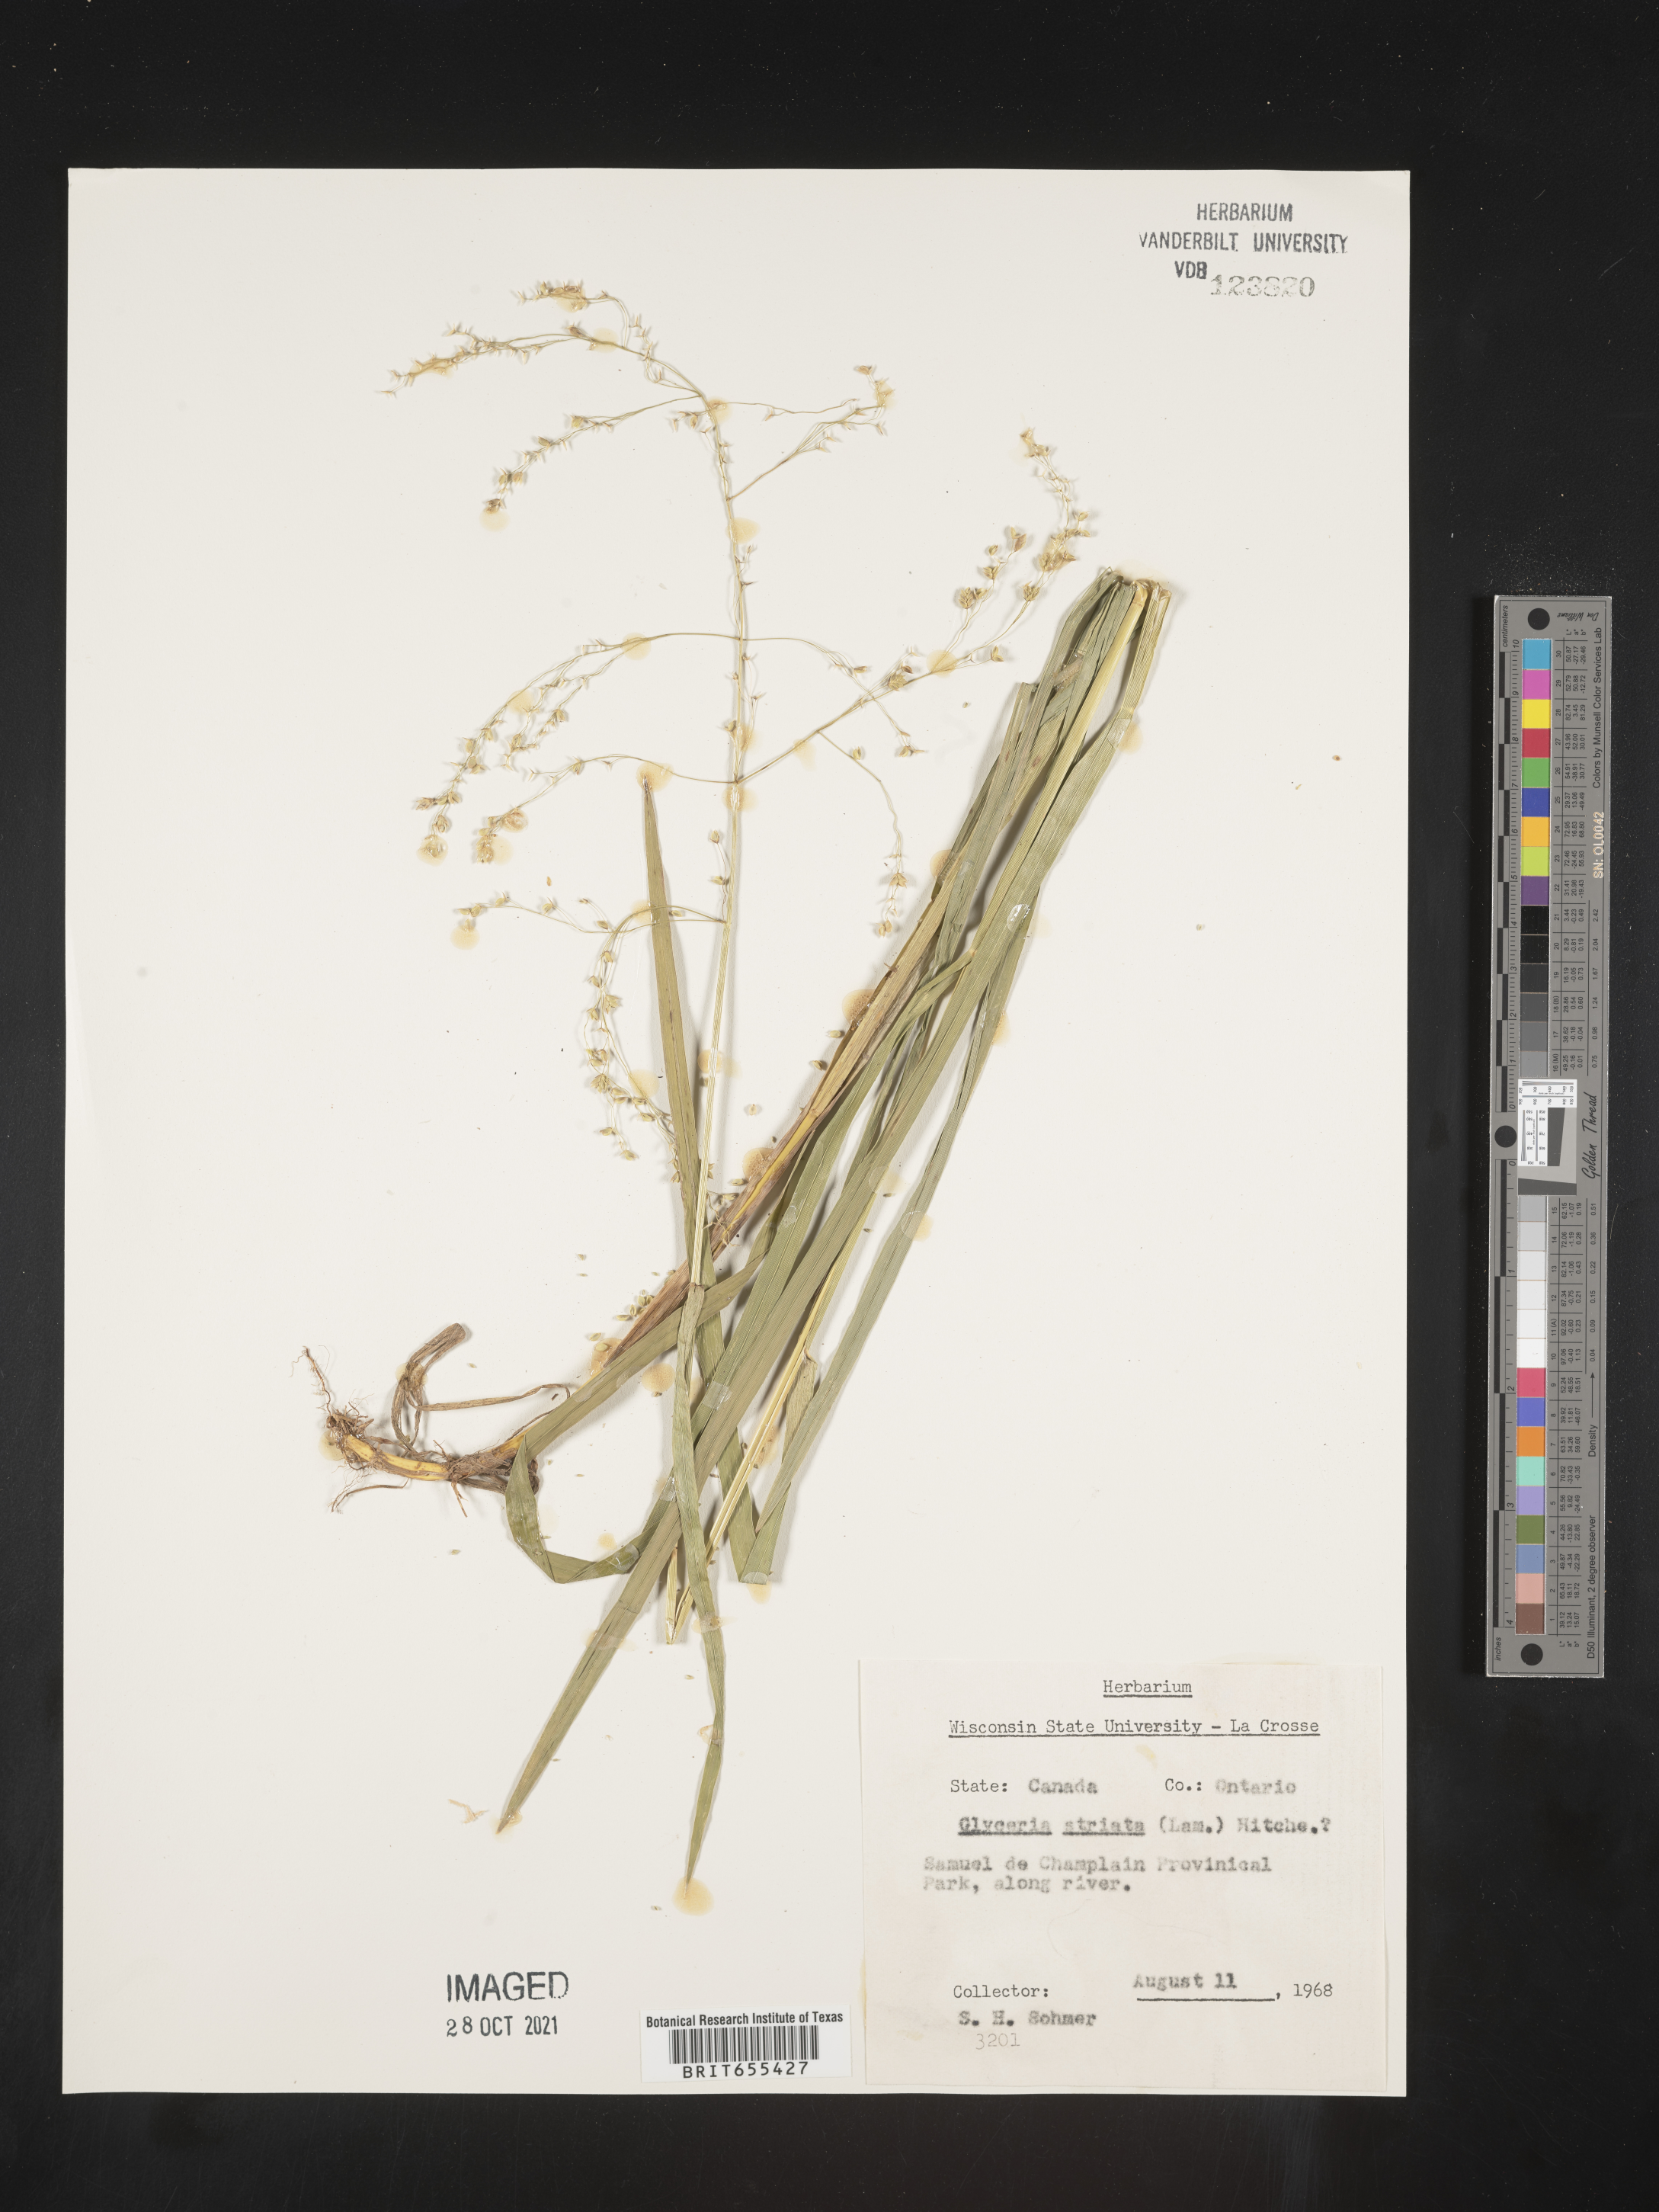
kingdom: Plantae
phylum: Tracheophyta
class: Liliopsida
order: Poales
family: Poaceae
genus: Glyceria
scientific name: Glyceria
